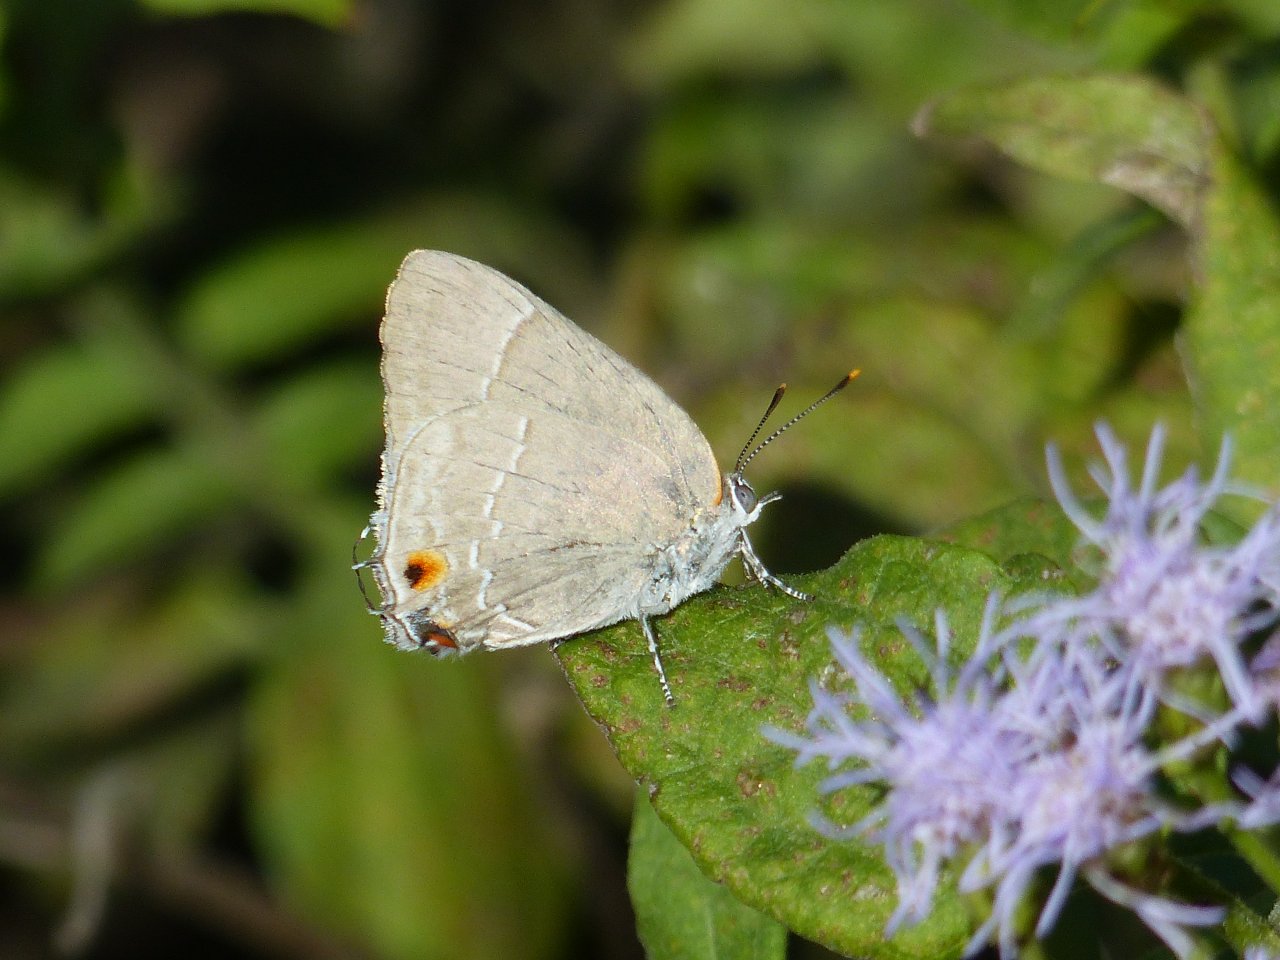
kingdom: Animalia
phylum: Arthropoda
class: Insecta
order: Lepidoptera
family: Lycaenidae
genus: Thecla
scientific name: Thecla marius
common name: Marius Hairstreak
